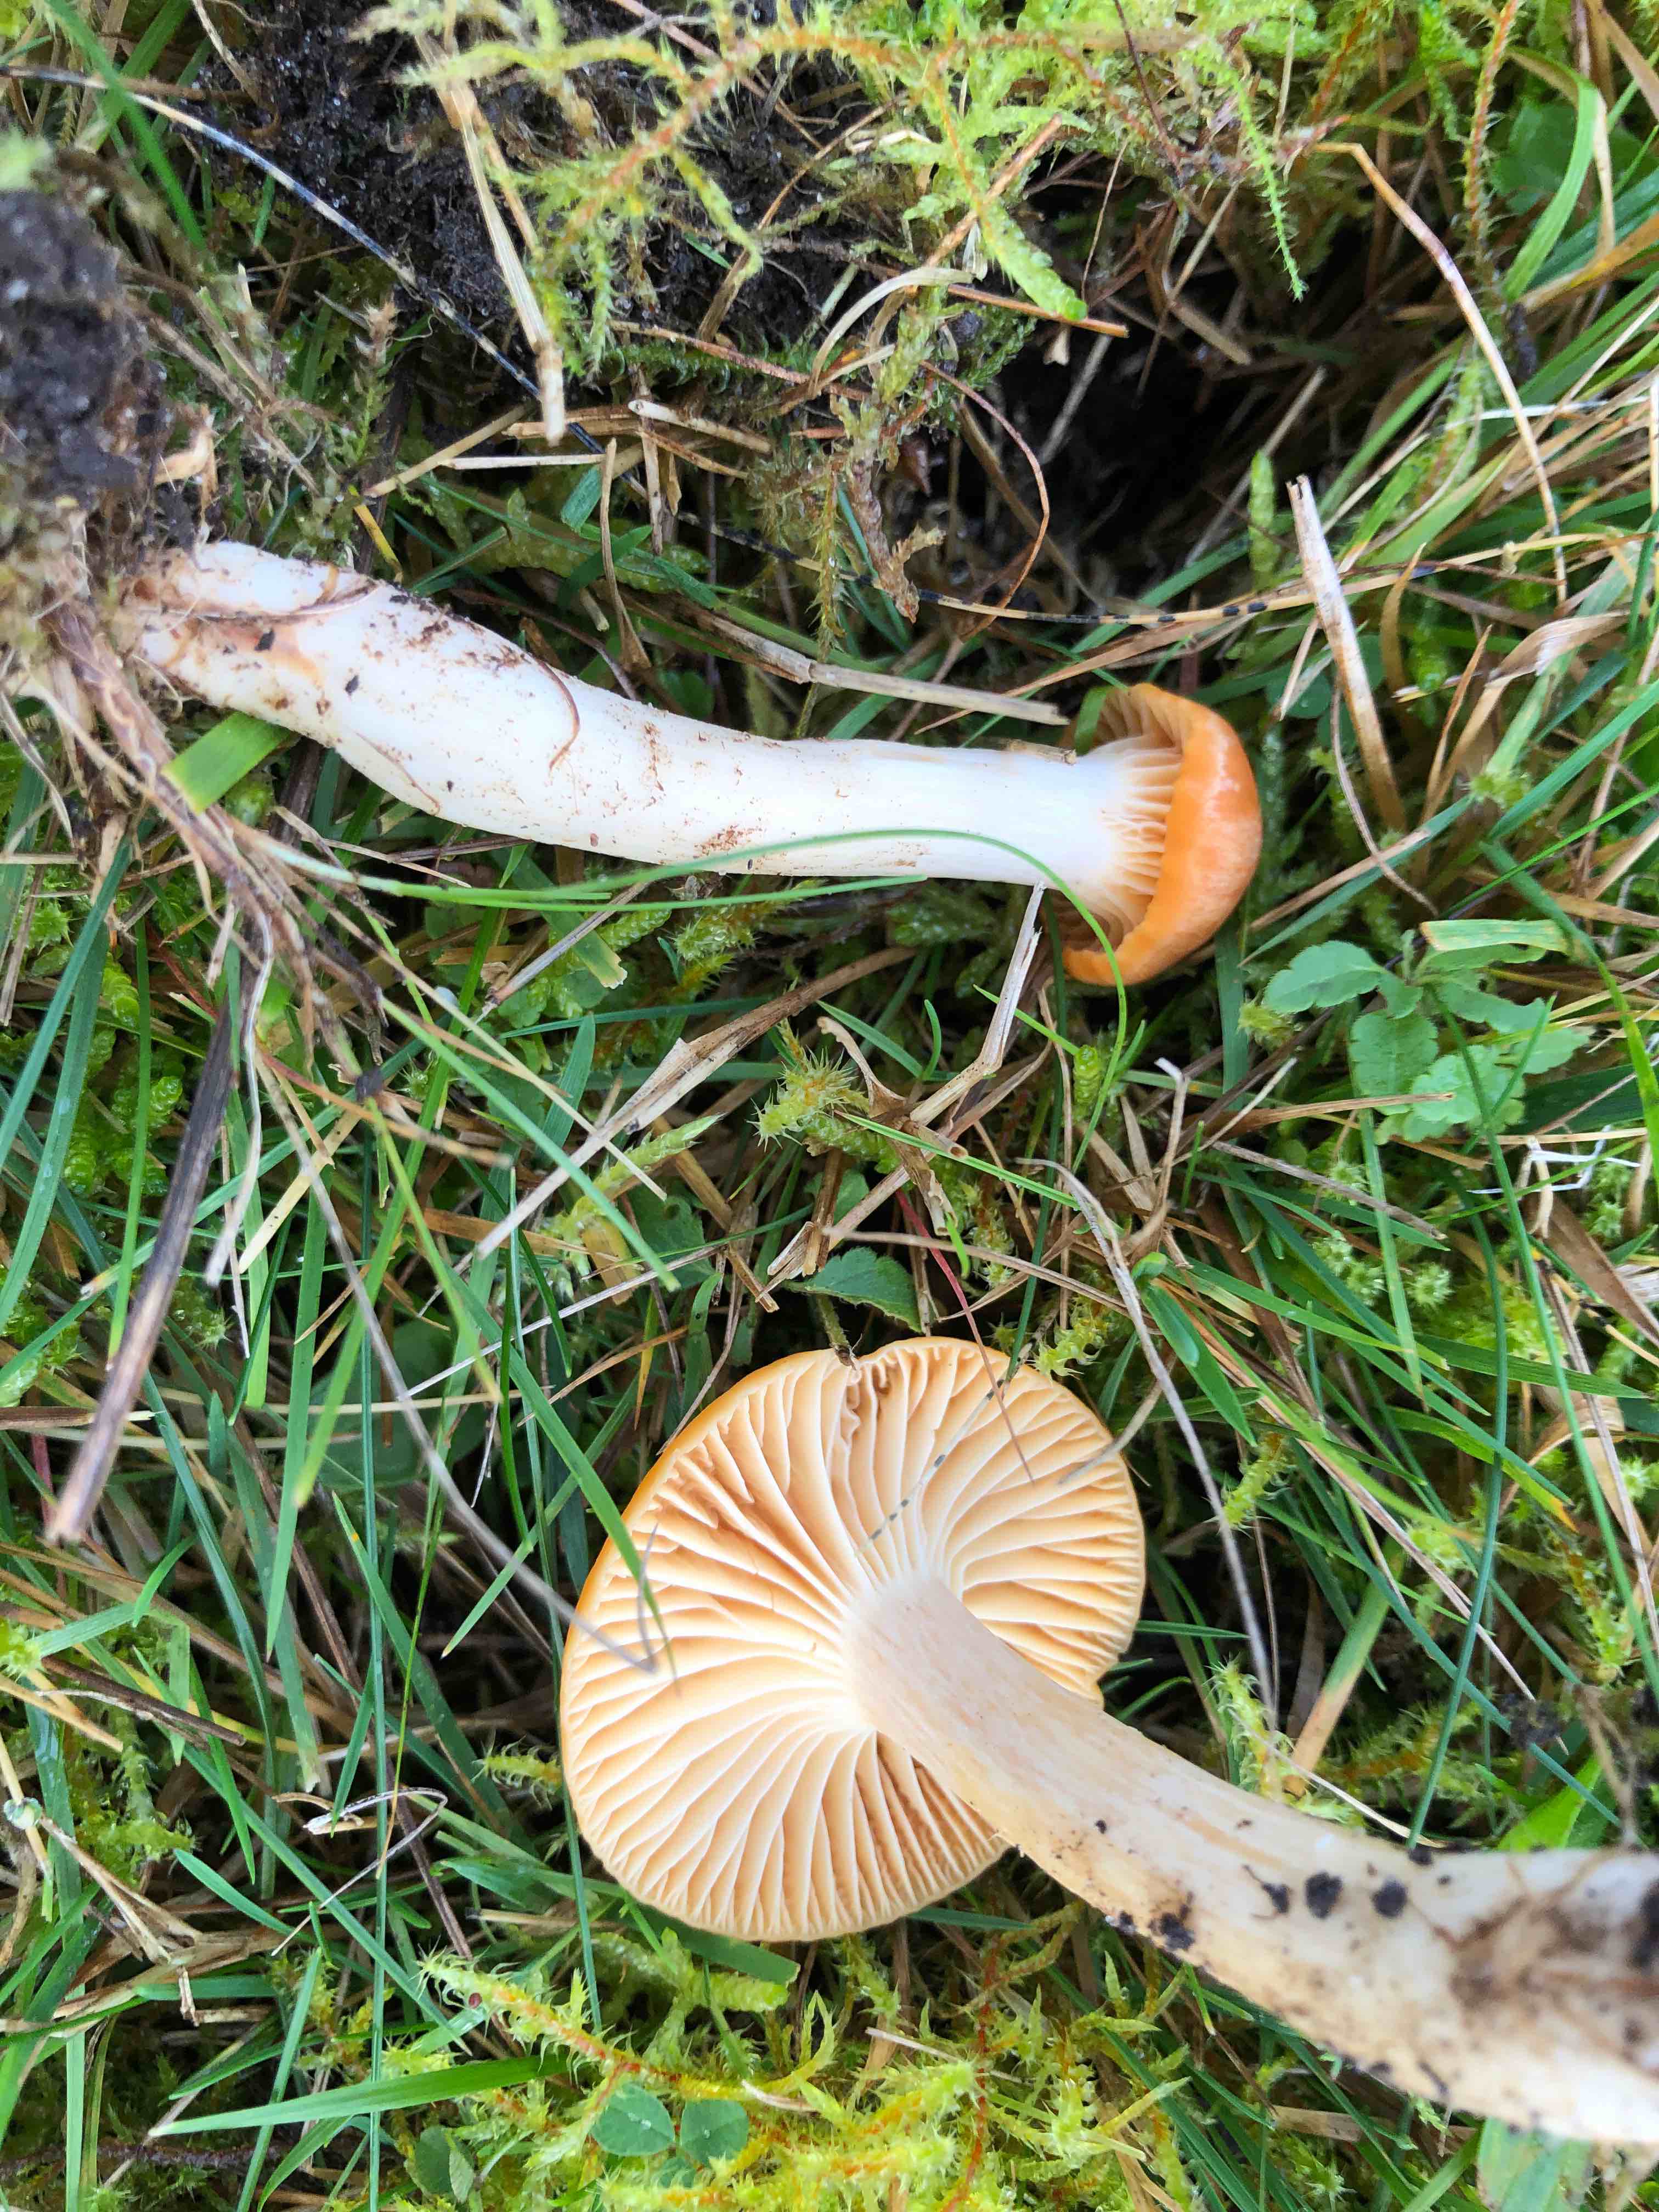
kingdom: Fungi
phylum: Basidiomycota
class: Agaricomycetes
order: Agaricales
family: Hygrophoraceae
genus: Cuphophyllus
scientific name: Cuphophyllus pratensis
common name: eng-vokshat
